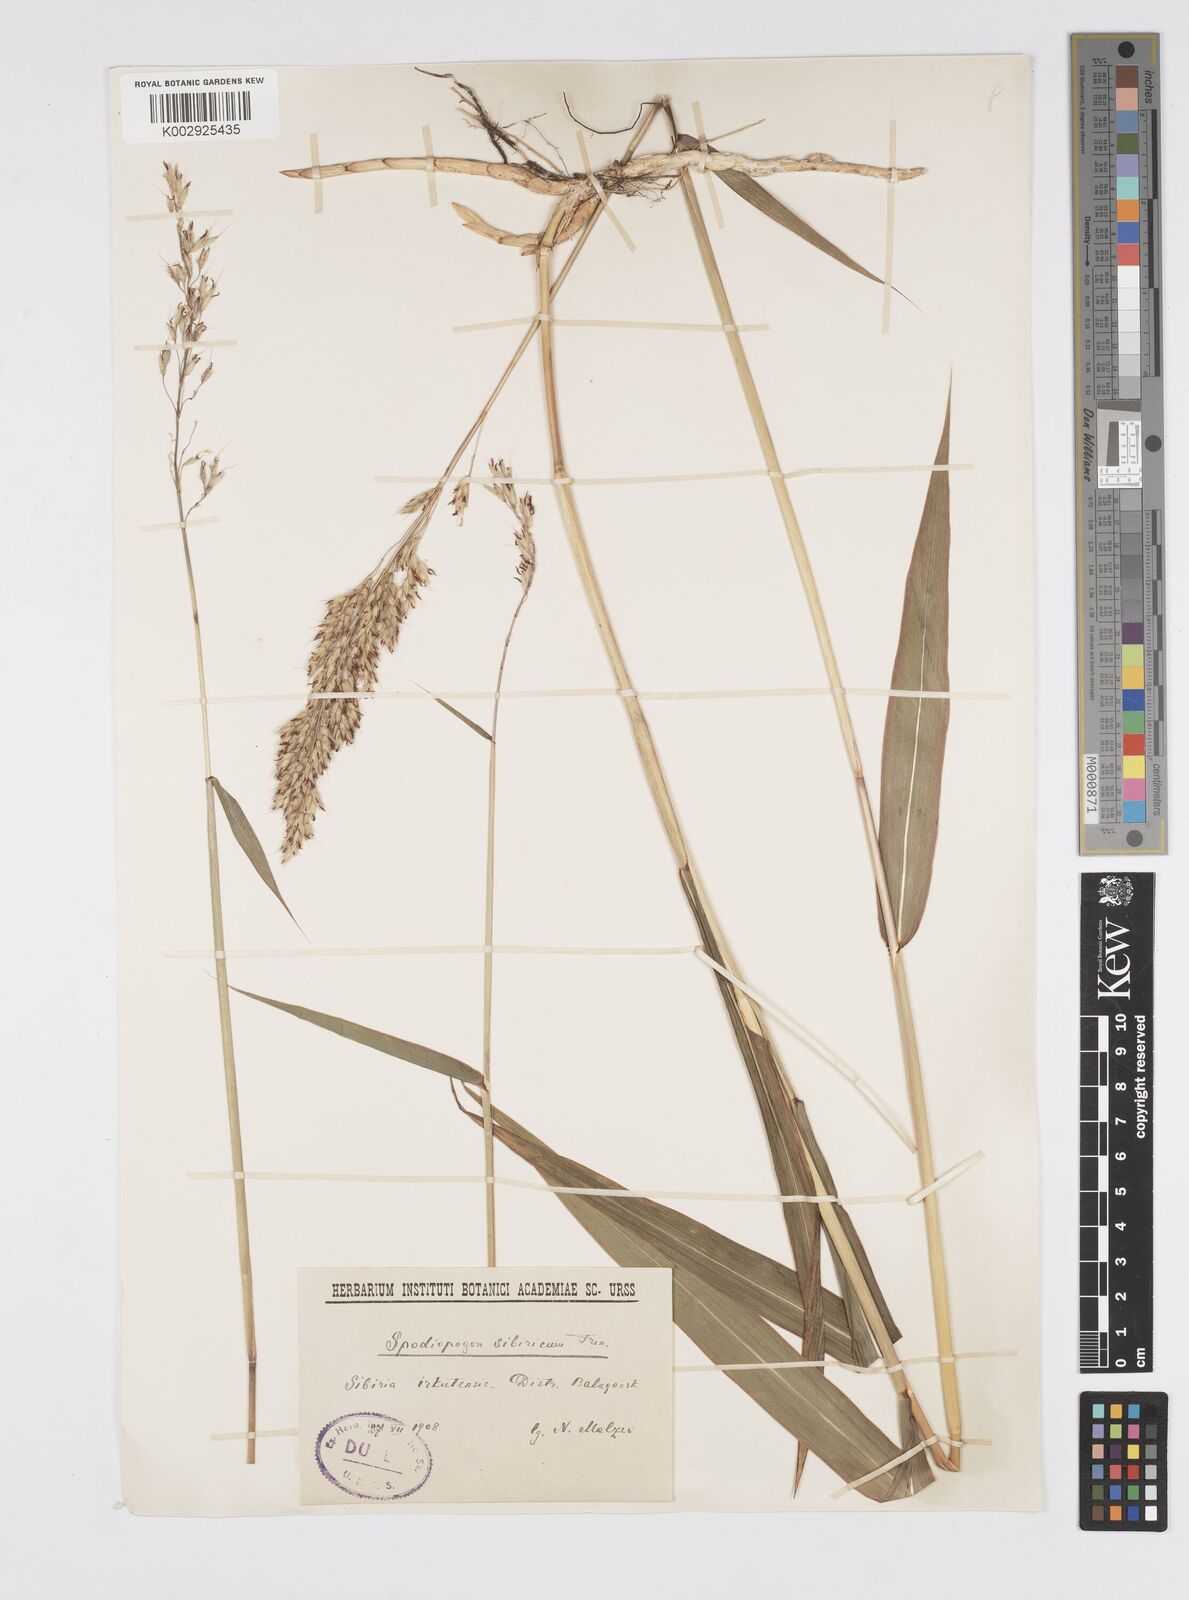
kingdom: Plantae
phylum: Tracheophyta
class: Liliopsida
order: Poales
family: Poaceae
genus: Spodiopogon
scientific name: Spodiopogon sibiricus
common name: Siberian graybeard
